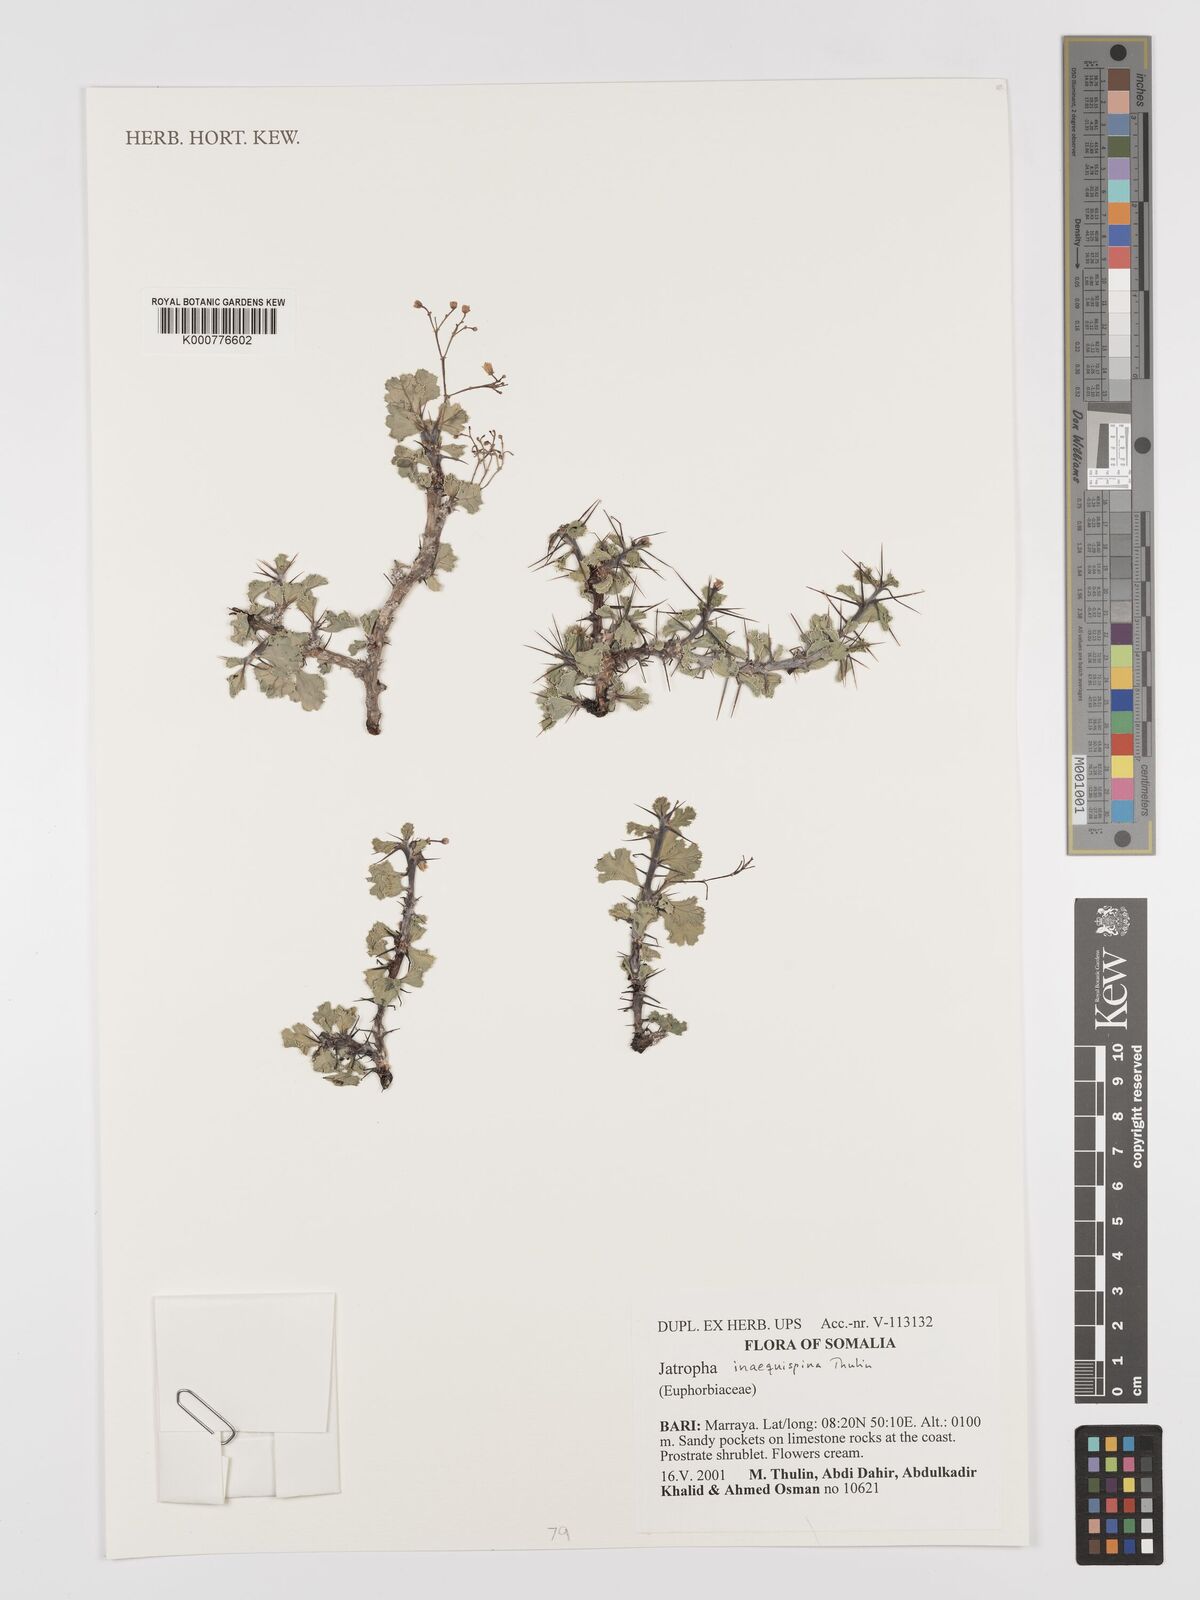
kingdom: Plantae
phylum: Tracheophyta
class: Magnoliopsida
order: Malpighiales
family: Euphorbiaceae
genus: Jatropha
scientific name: Jatropha inaequispina
